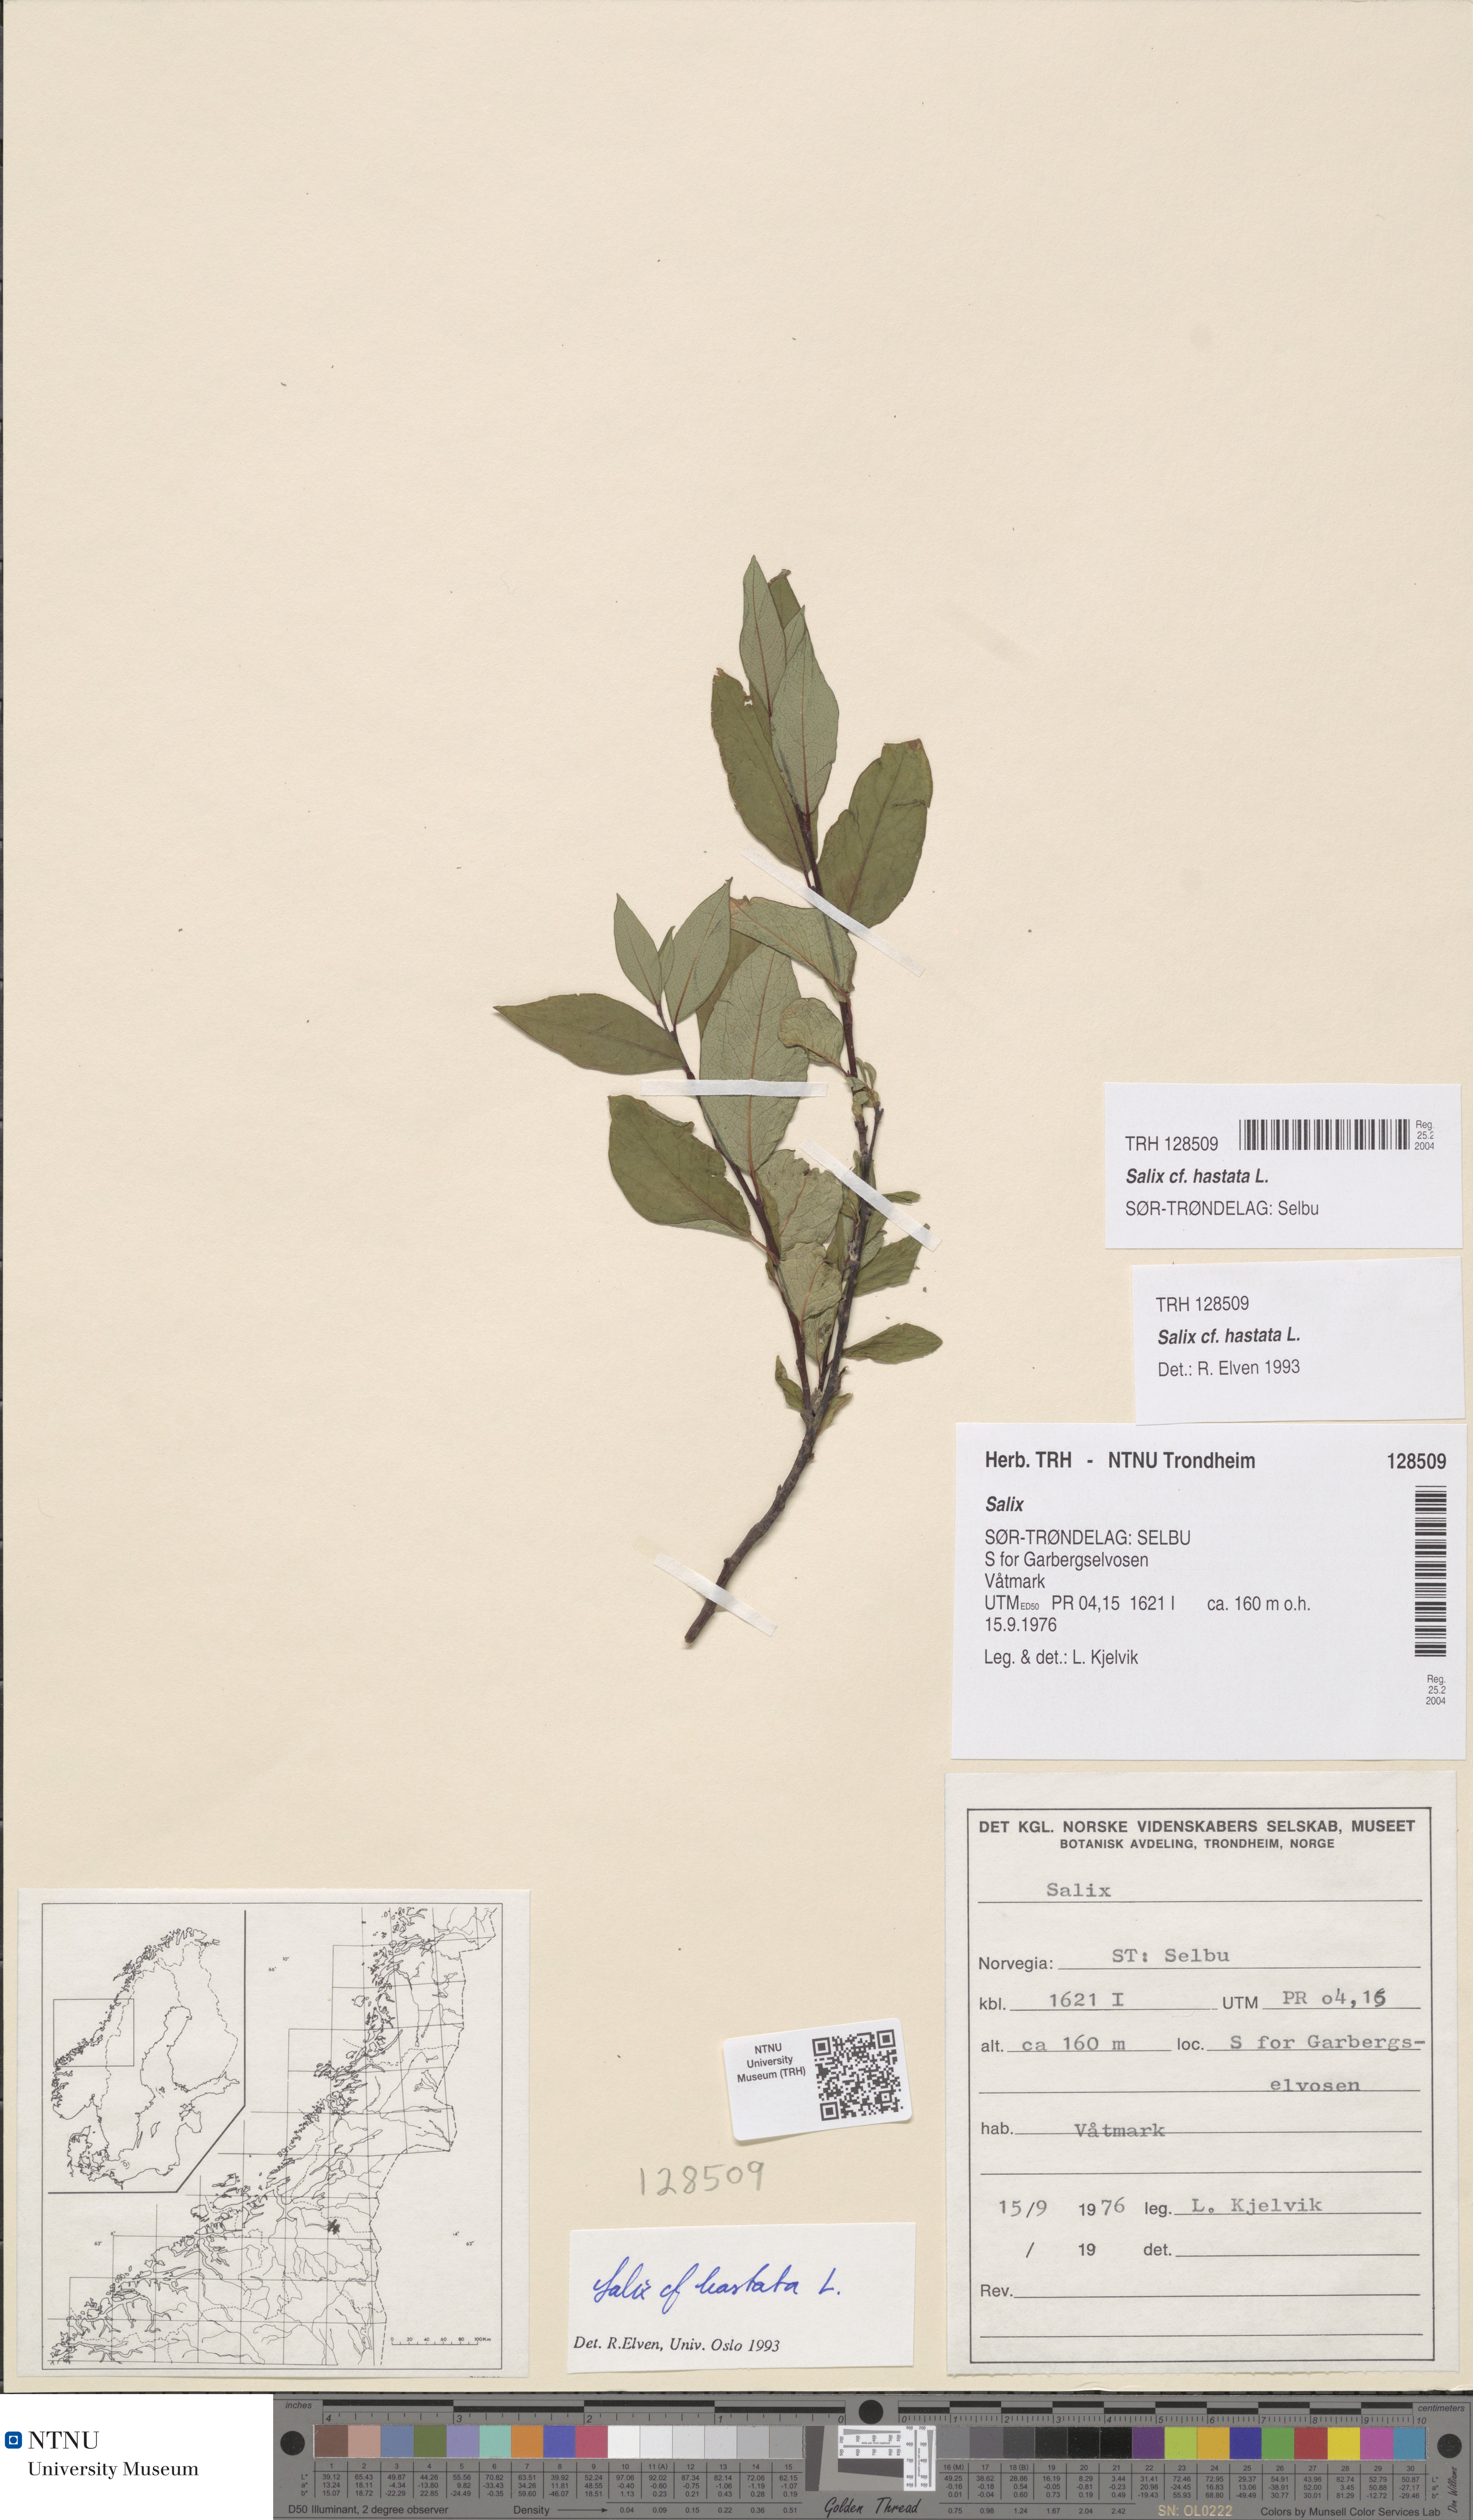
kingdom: Plantae
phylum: Tracheophyta
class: Magnoliopsida
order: Malpighiales
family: Salicaceae
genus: Salix
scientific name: Salix hastata
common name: Halberd willow
